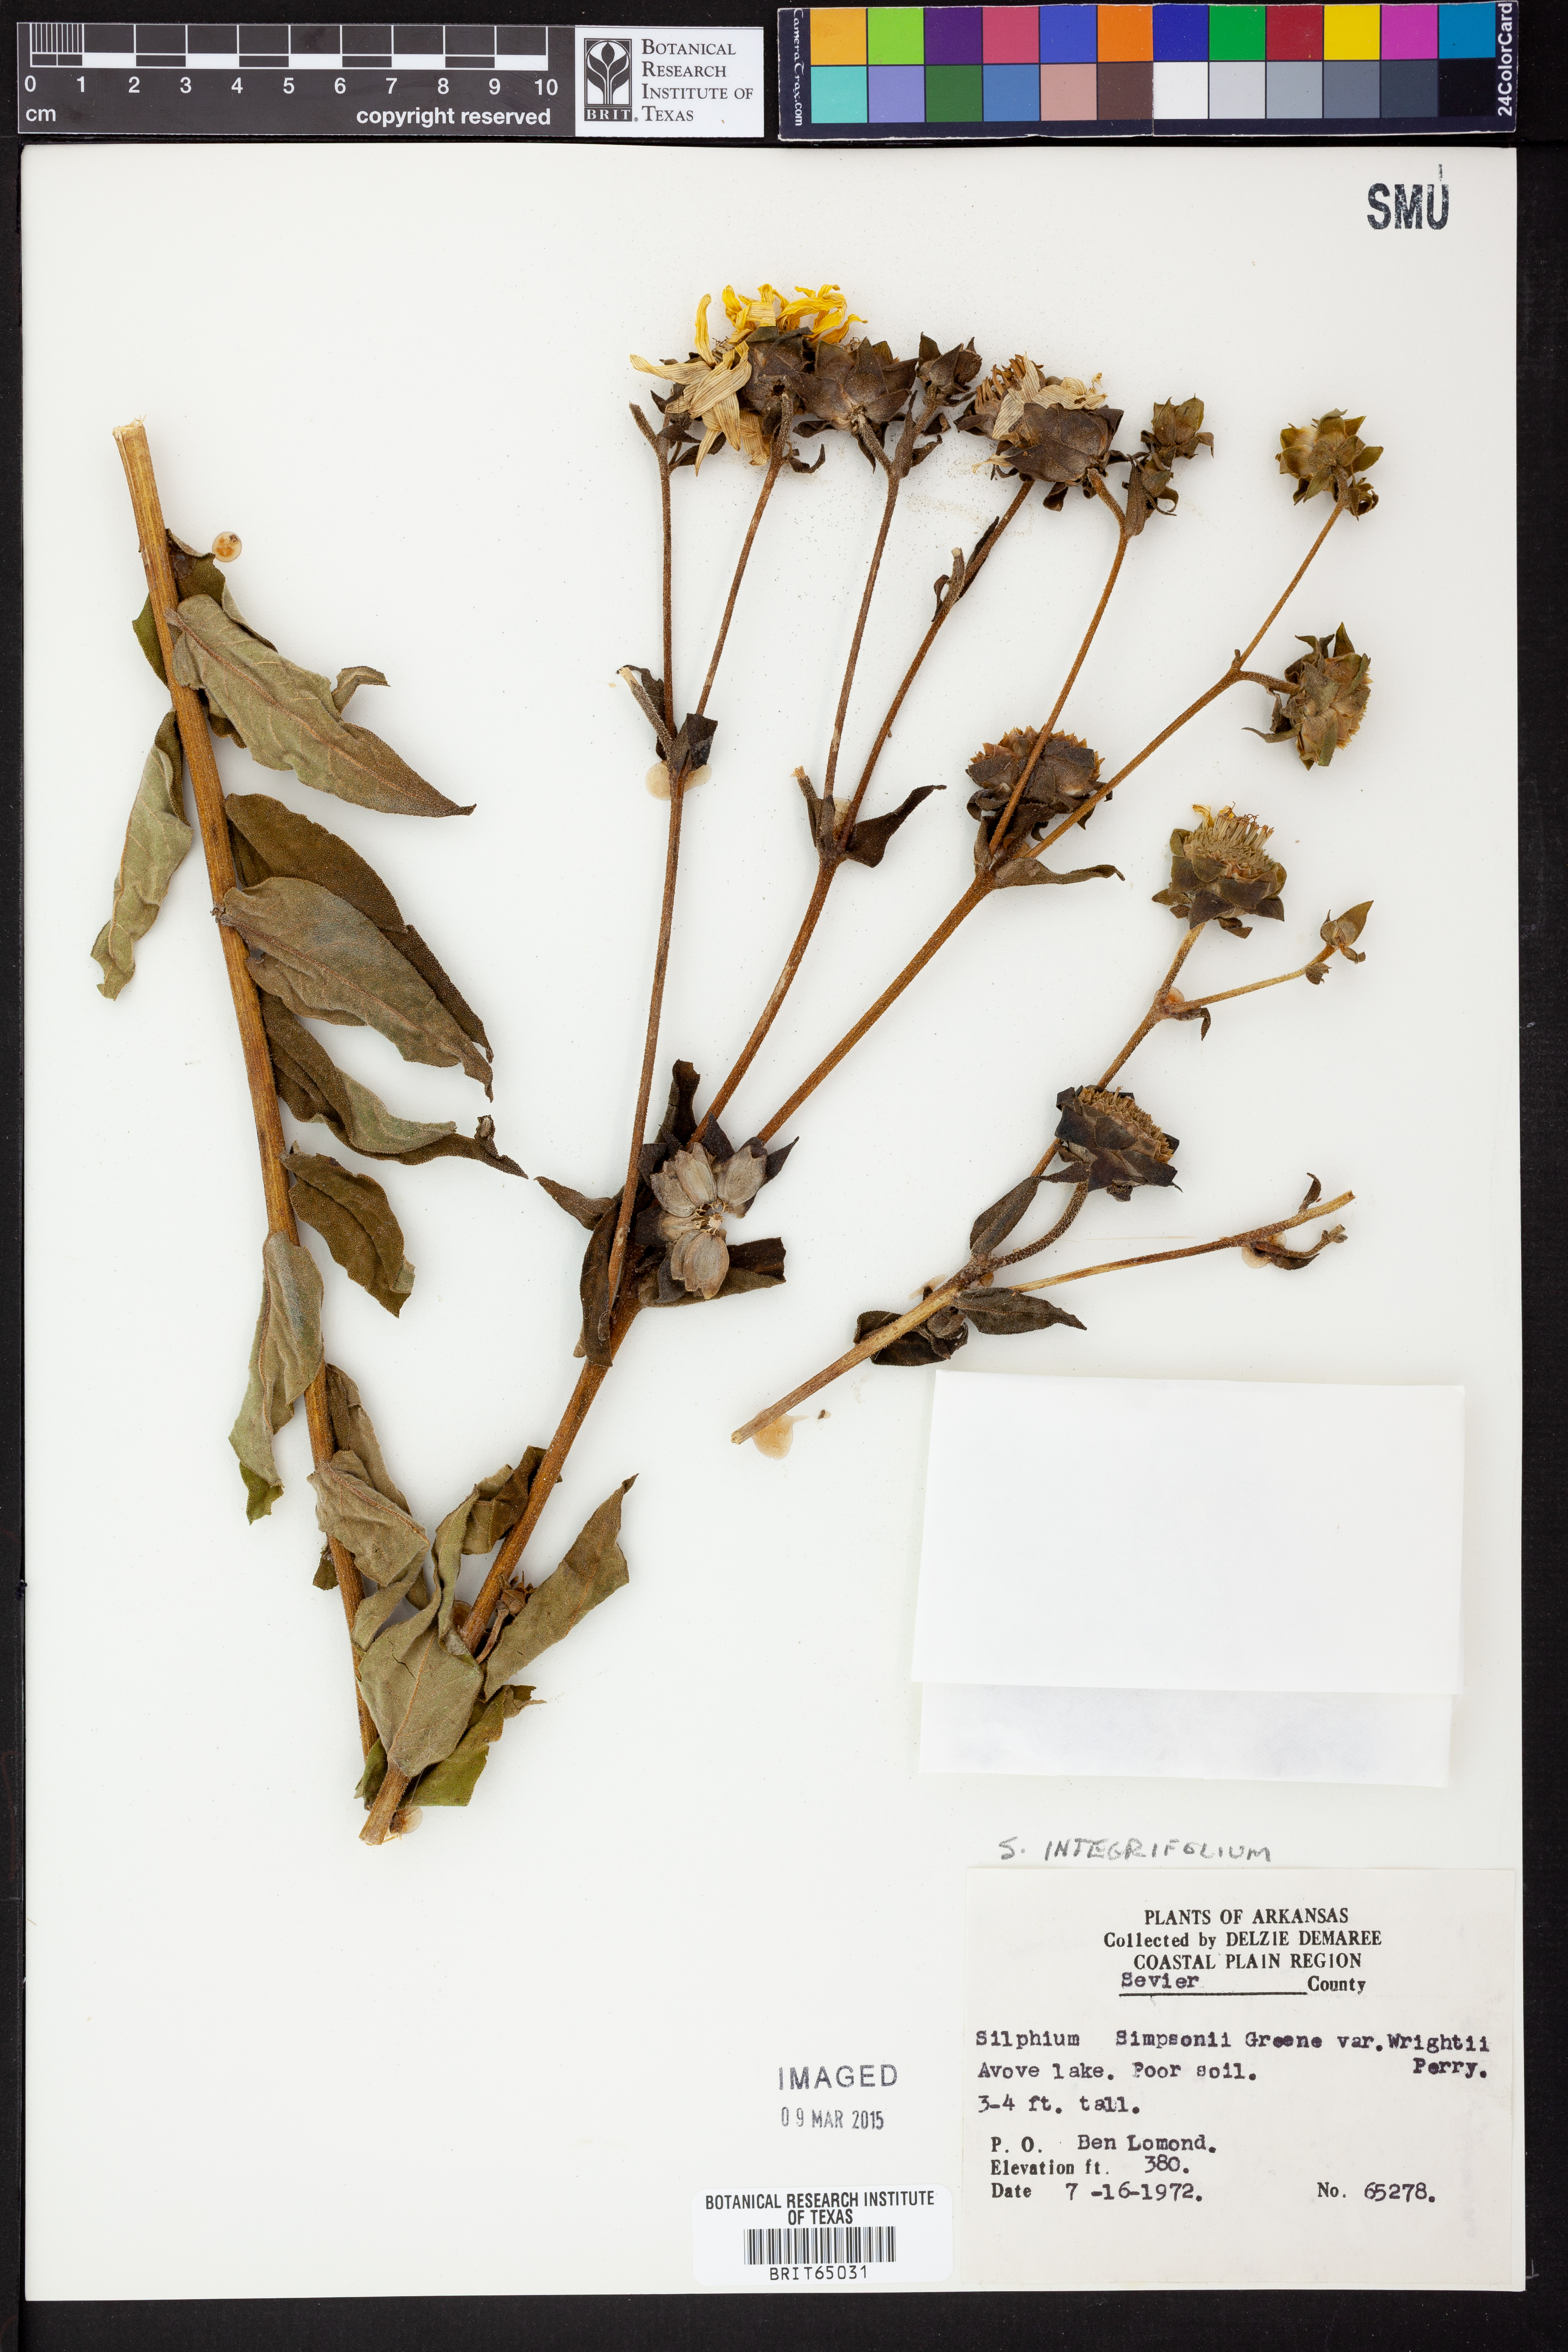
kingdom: Plantae
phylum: Tracheophyta
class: Magnoliopsida
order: Asterales
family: Asteraceae
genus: Silphium
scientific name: Silphium integrifolium
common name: Whole-leaf rosinweed
